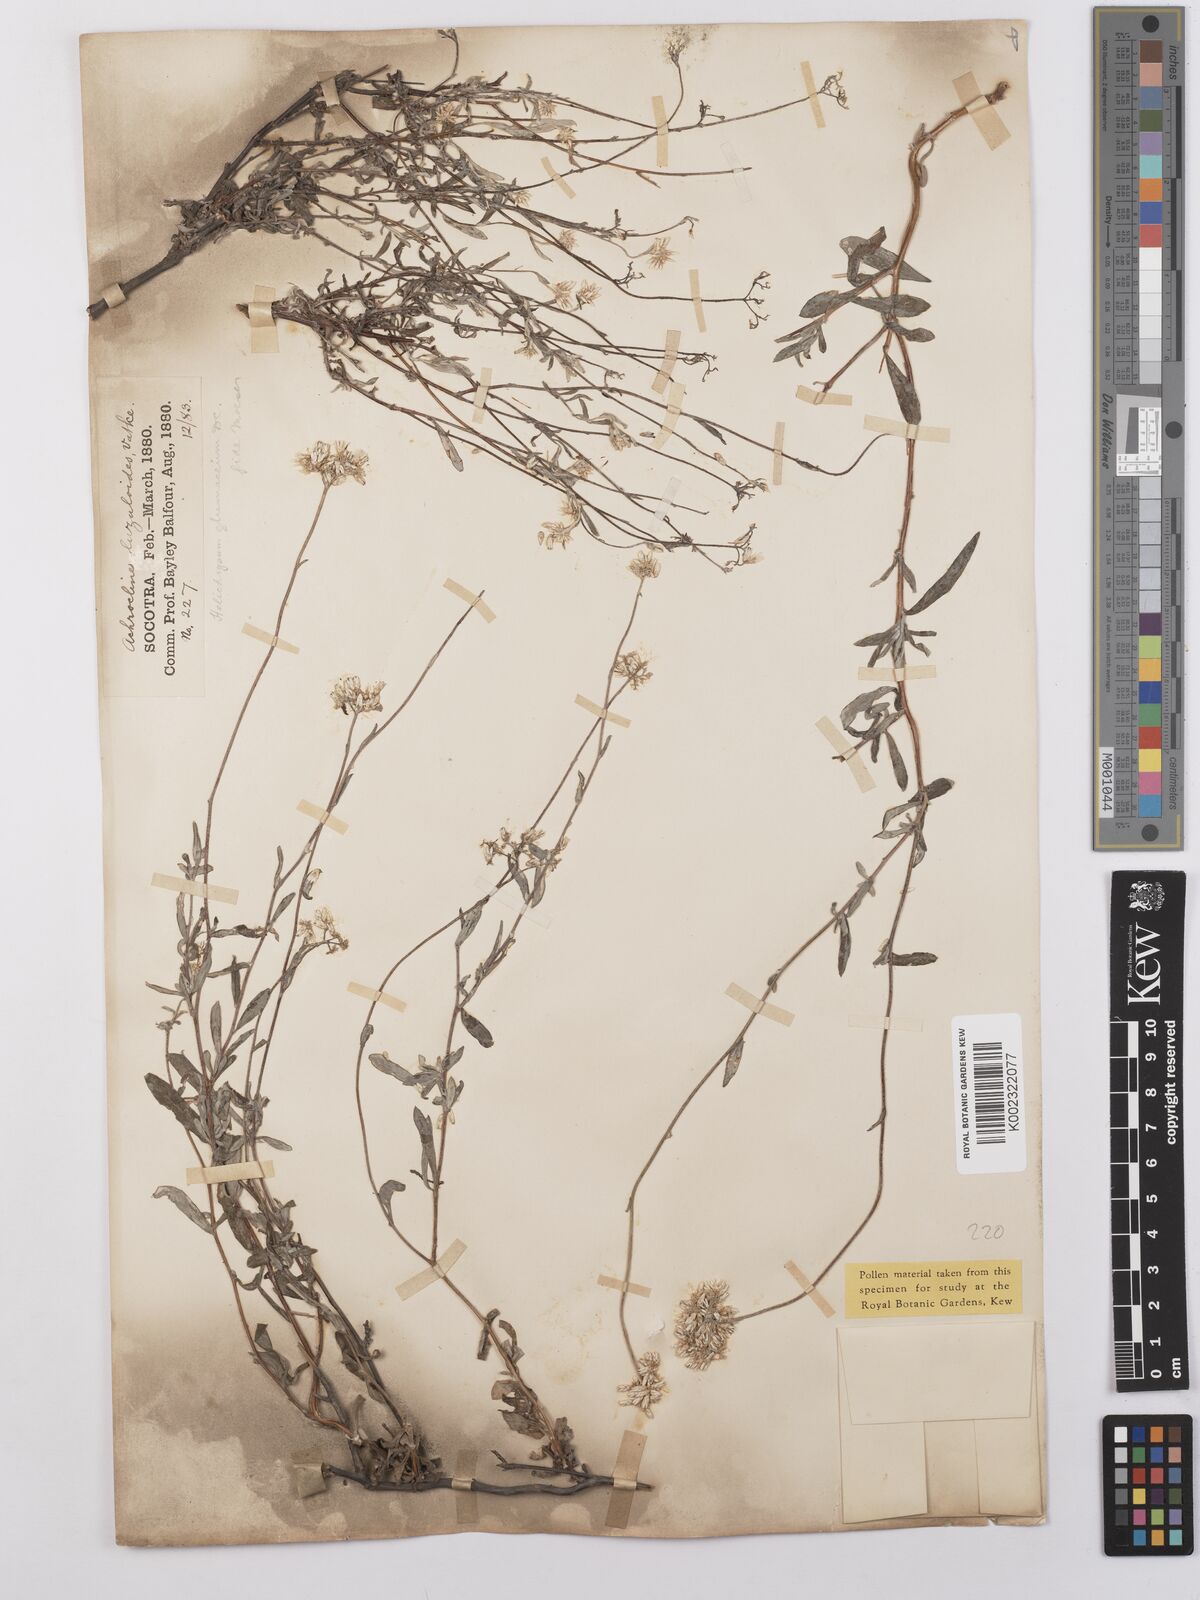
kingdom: Plantae
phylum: Tracheophyta
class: Magnoliopsida
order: Asterales
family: Asteraceae
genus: Helichrysum
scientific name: Helichrysum glumaceum
